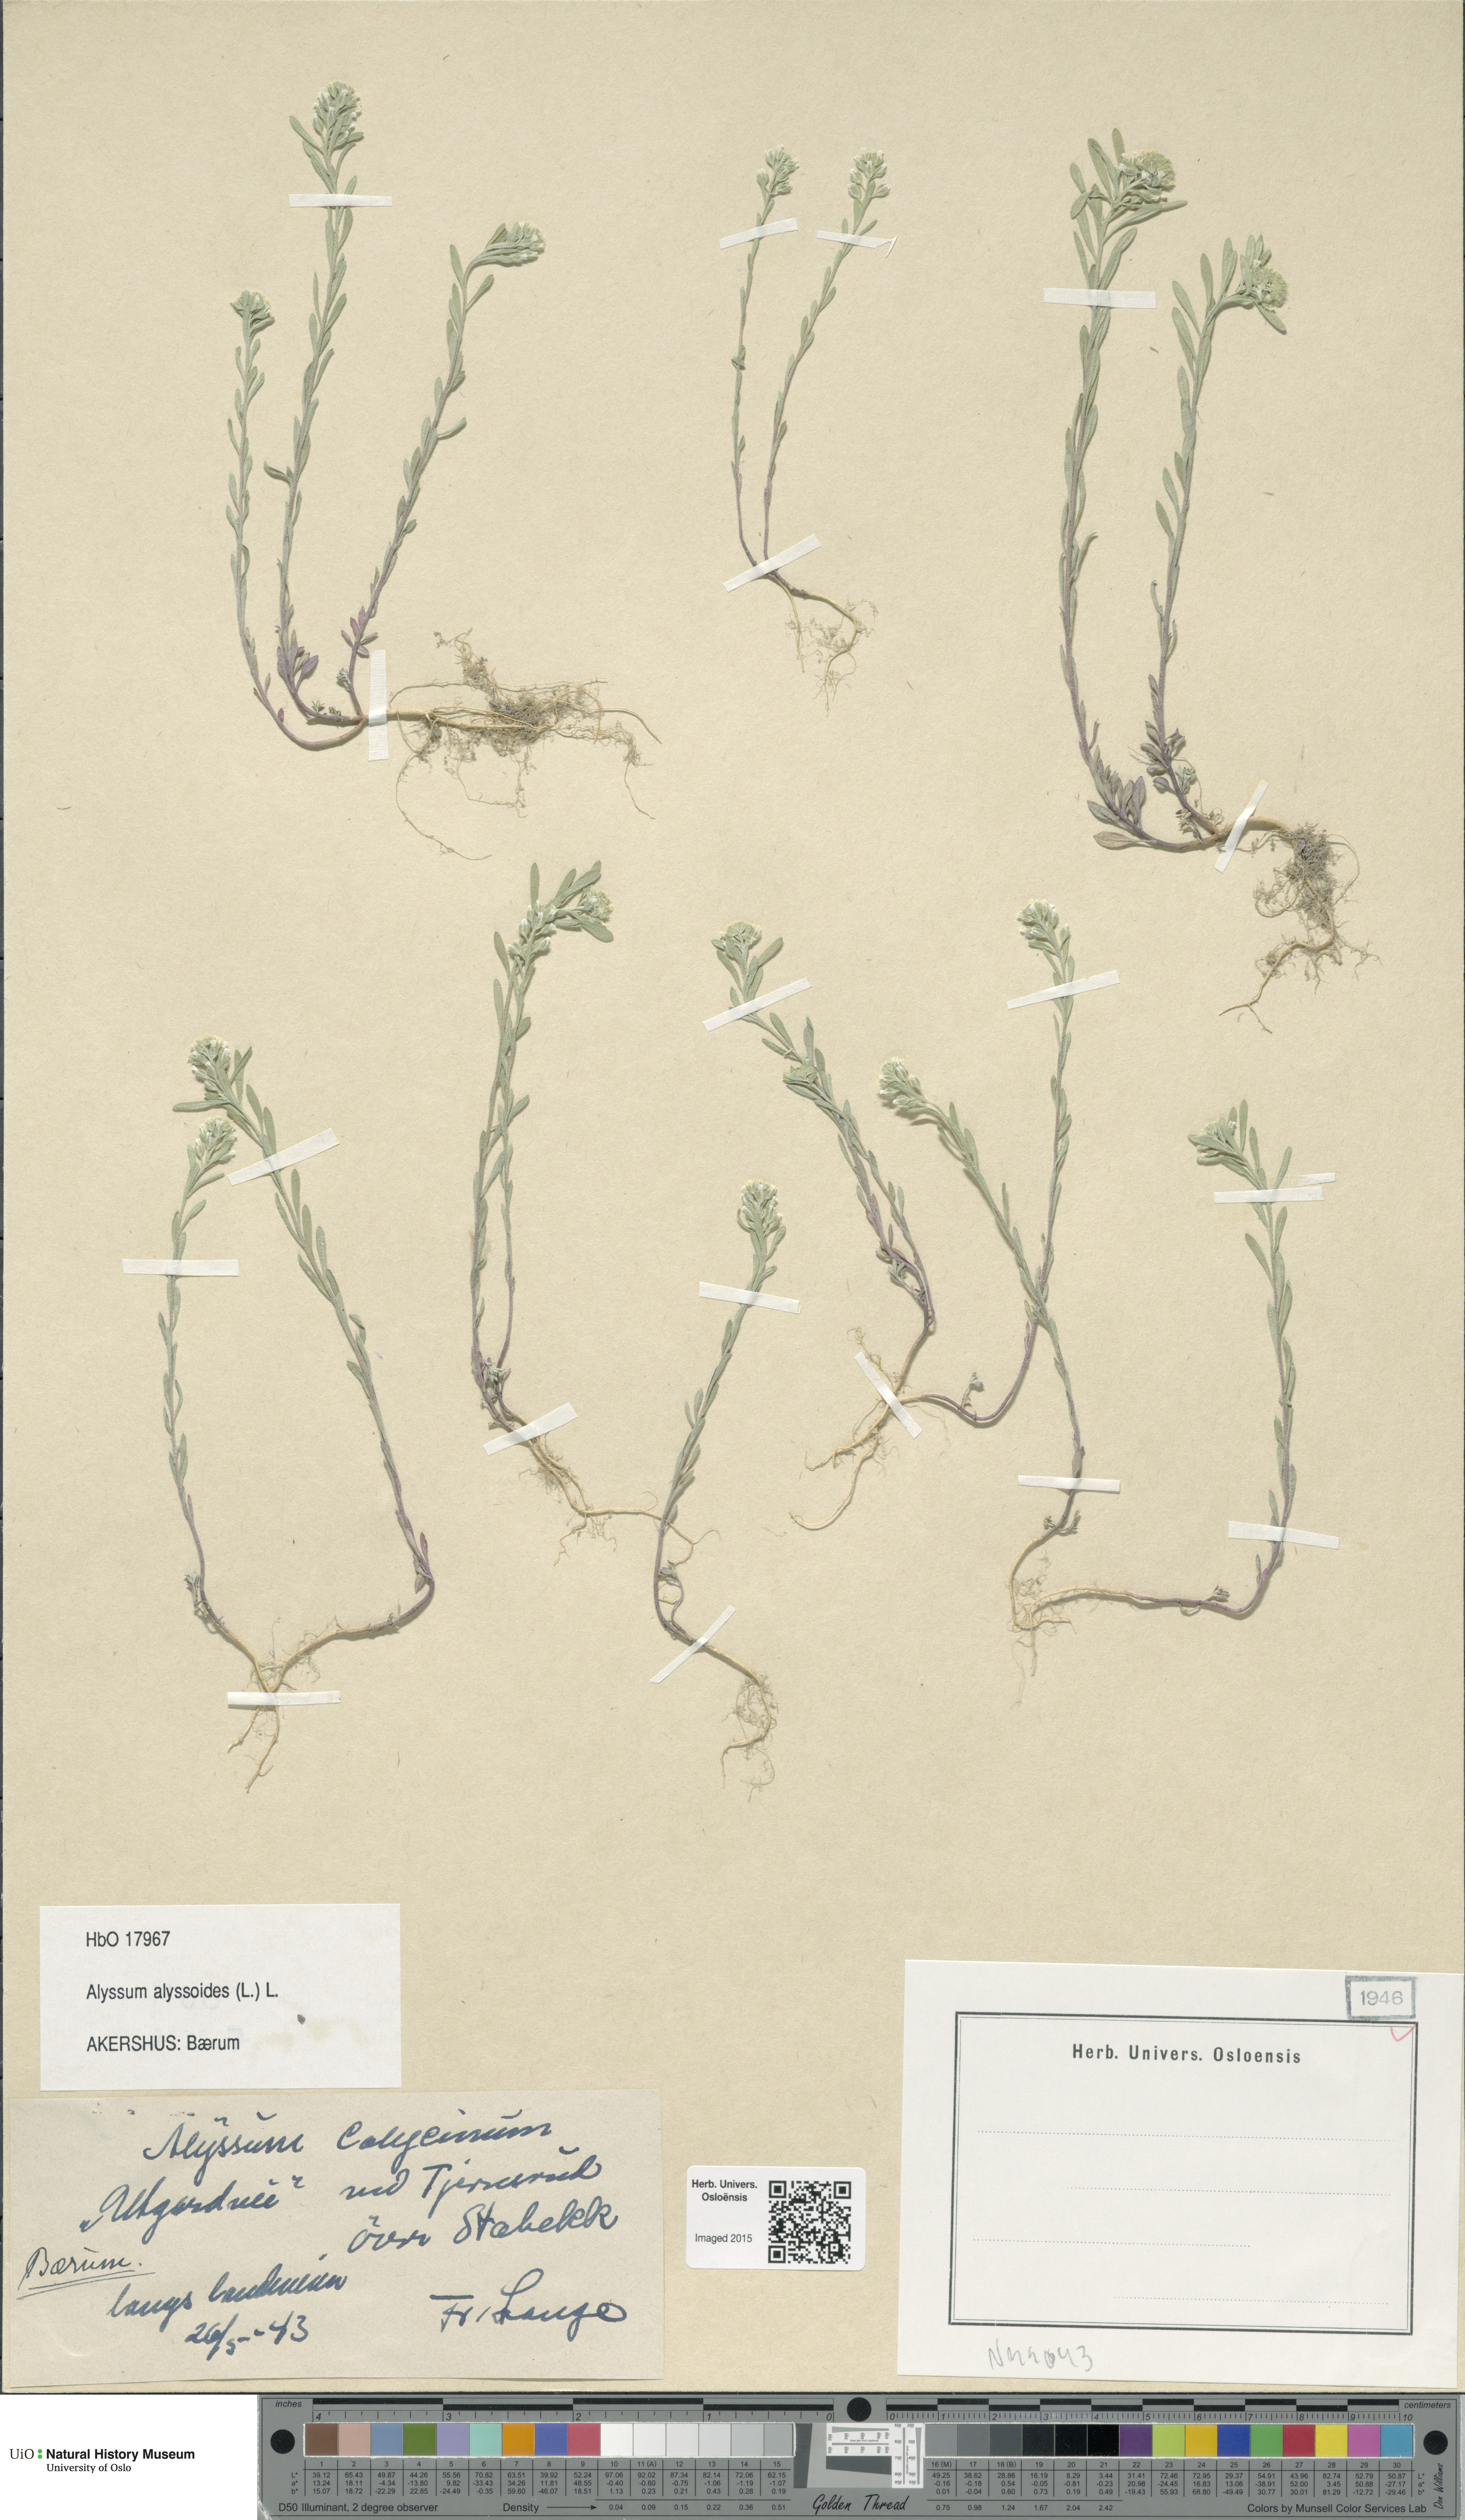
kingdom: Plantae
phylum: Tracheophyta
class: Magnoliopsida
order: Brassicales
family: Brassicaceae
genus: Alyssum
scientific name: Alyssum alyssoides
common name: Small alison
